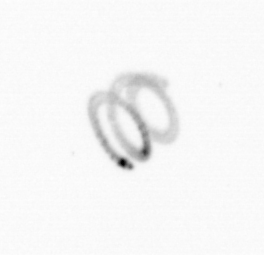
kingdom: Chromista
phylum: Ochrophyta
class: Bacillariophyceae
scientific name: Bacillariophyceae
